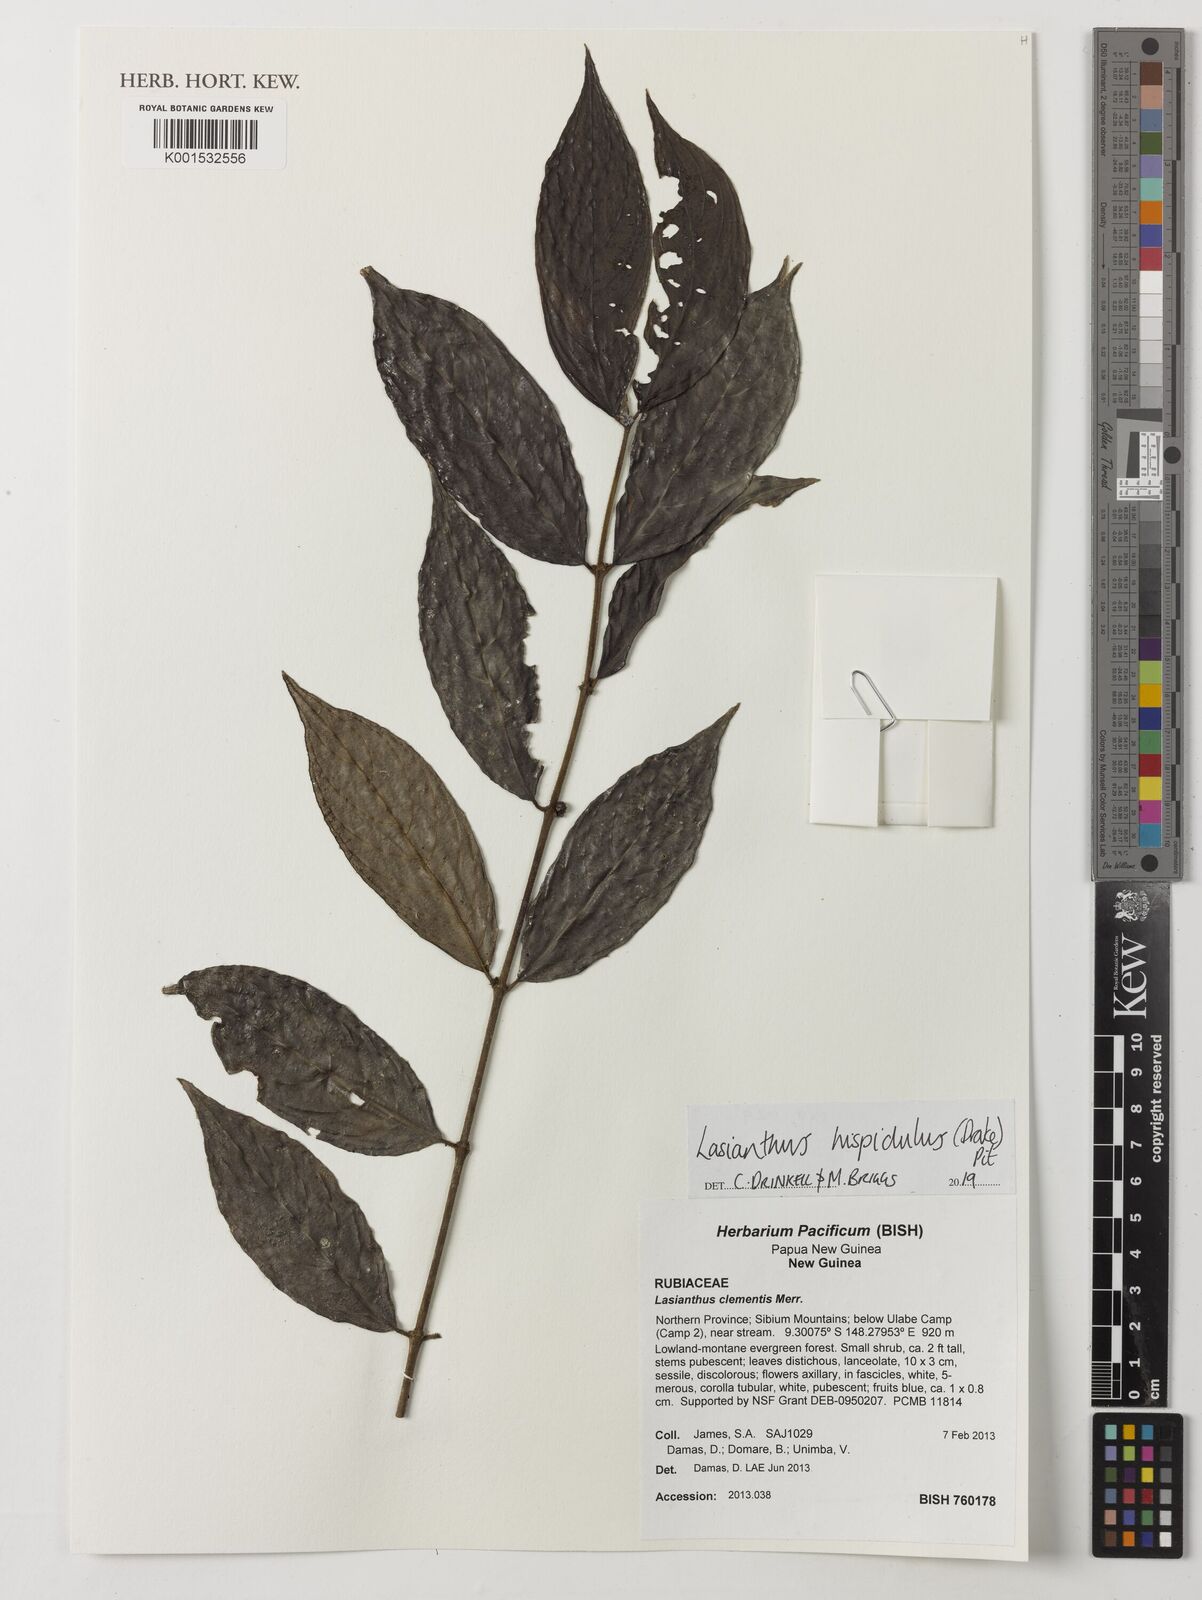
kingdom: Plantae
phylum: Tracheophyta
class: Magnoliopsida
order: Gentianales
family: Rubiaceae
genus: Lasianthus
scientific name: Lasianthus hispidulus
